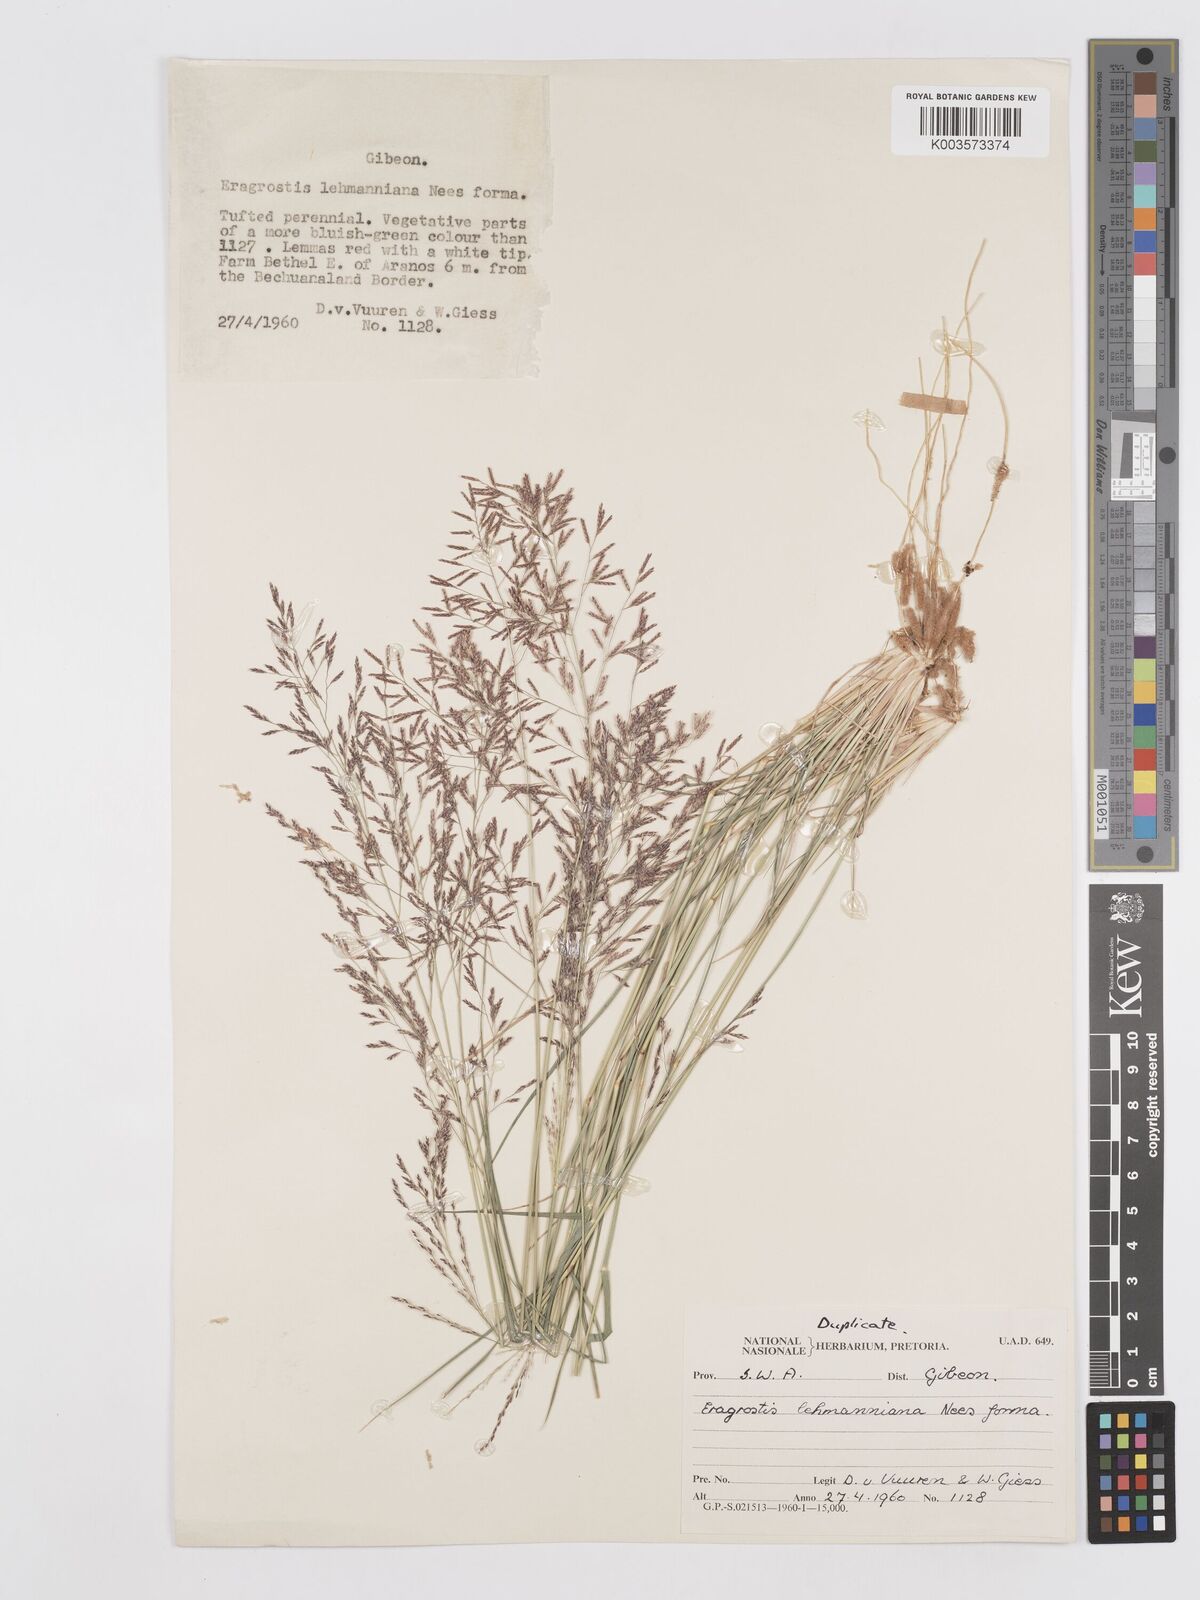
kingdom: Plantae
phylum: Tracheophyta
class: Liliopsida
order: Poales
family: Poaceae
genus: Eragrostis
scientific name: Eragrostis lehmanniana
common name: Lehmann lovegrass
